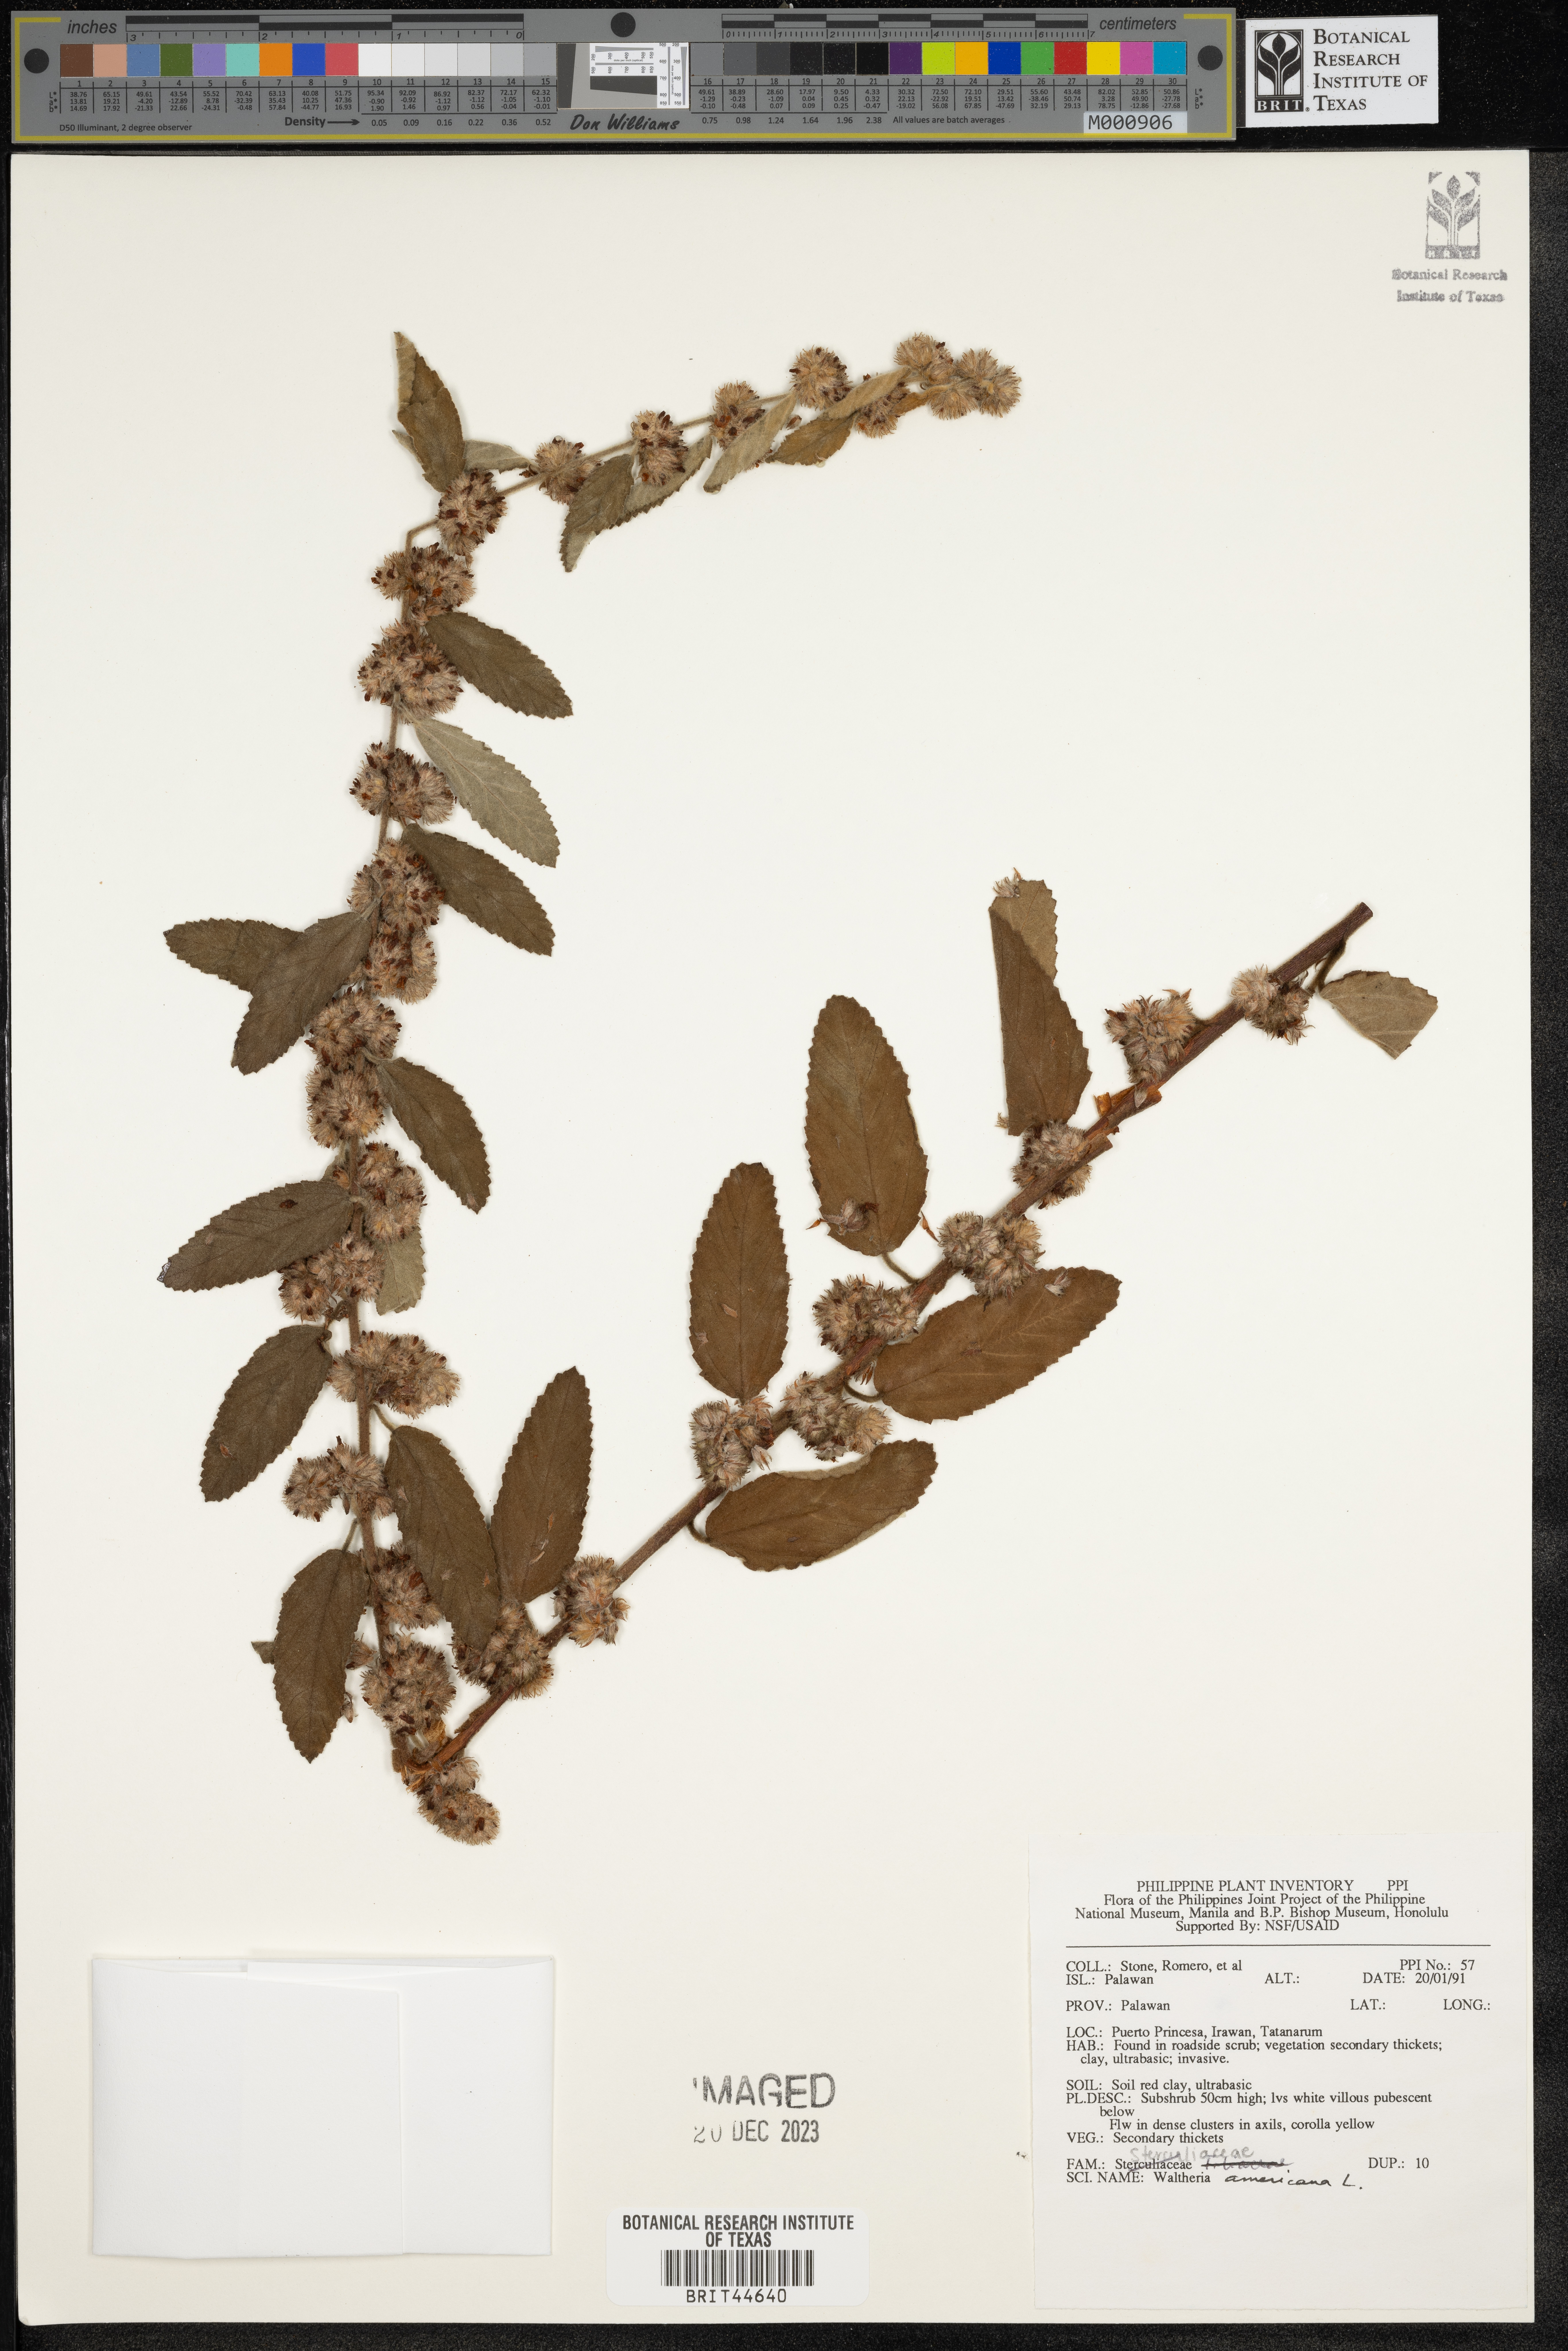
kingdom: Plantae
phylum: Tracheophyta
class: Magnoliopsida
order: Malvales
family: Malvaceae
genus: Waltheria
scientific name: Waltheria indica
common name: Leather-coat
